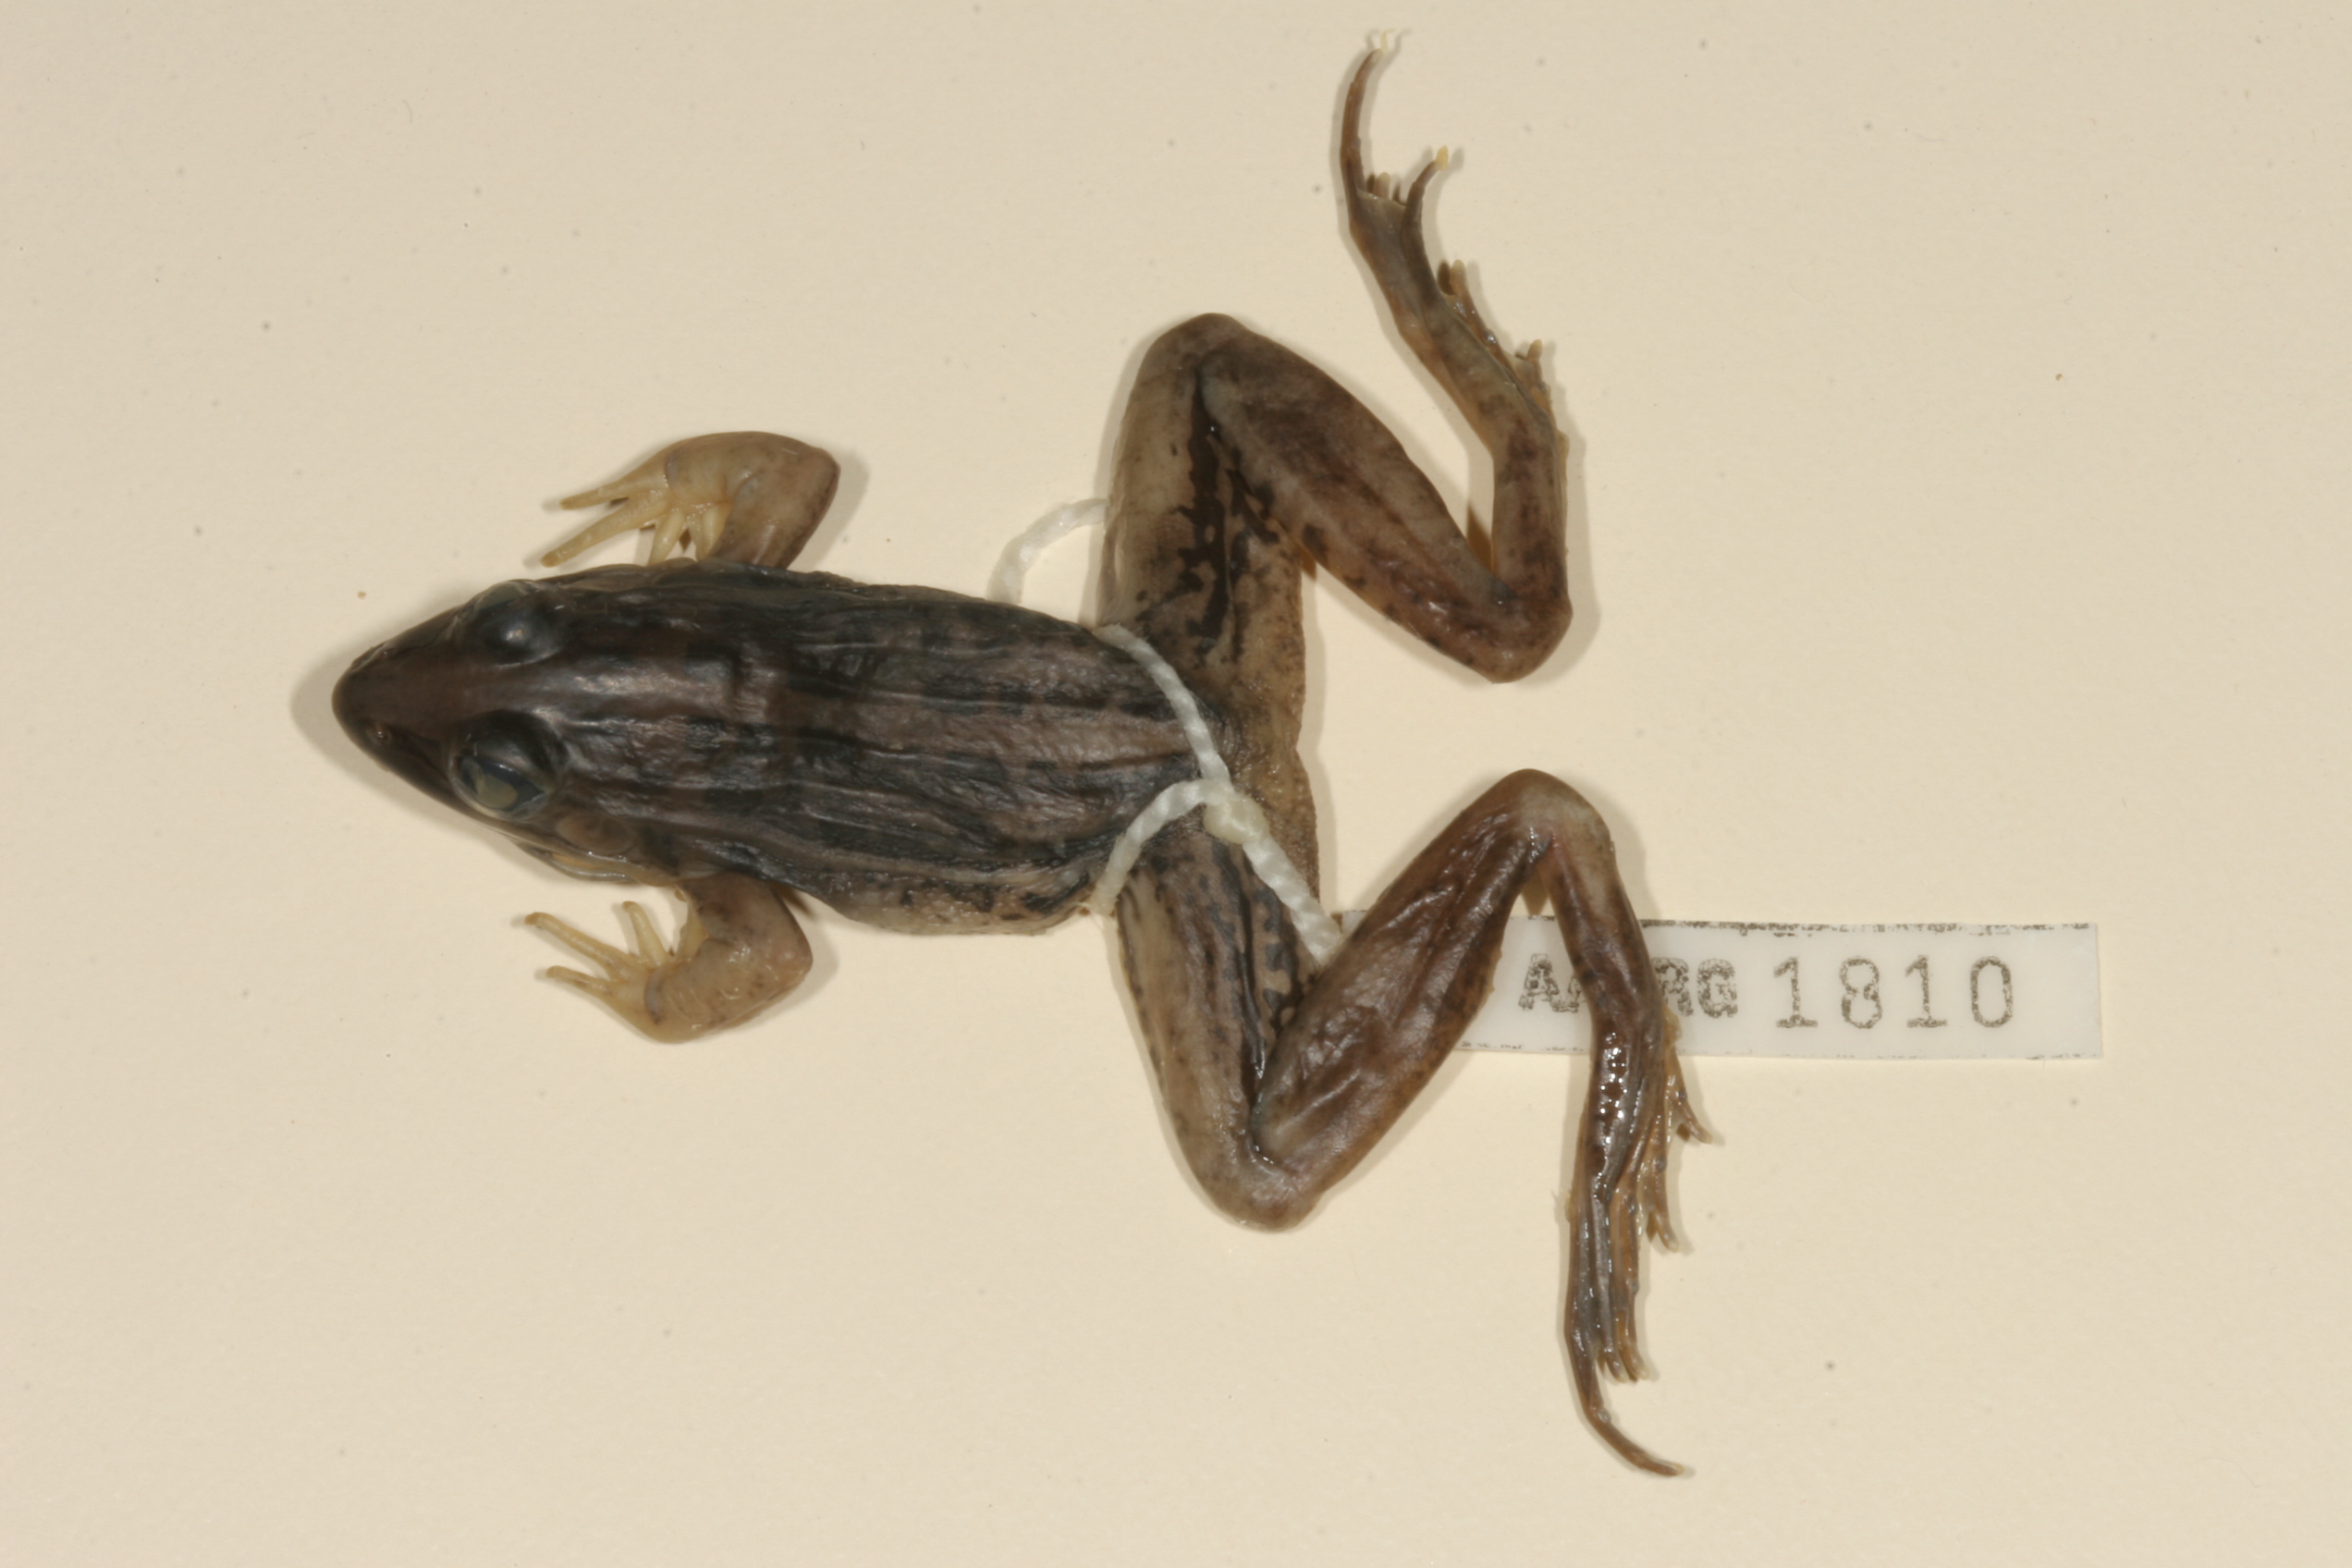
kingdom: Animalia
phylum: Chordata
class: Amphibia
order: Anura
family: Ptychadenidae
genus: Ptychadena
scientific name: Ptychadena mascareniensis
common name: Mascarene grass frog
